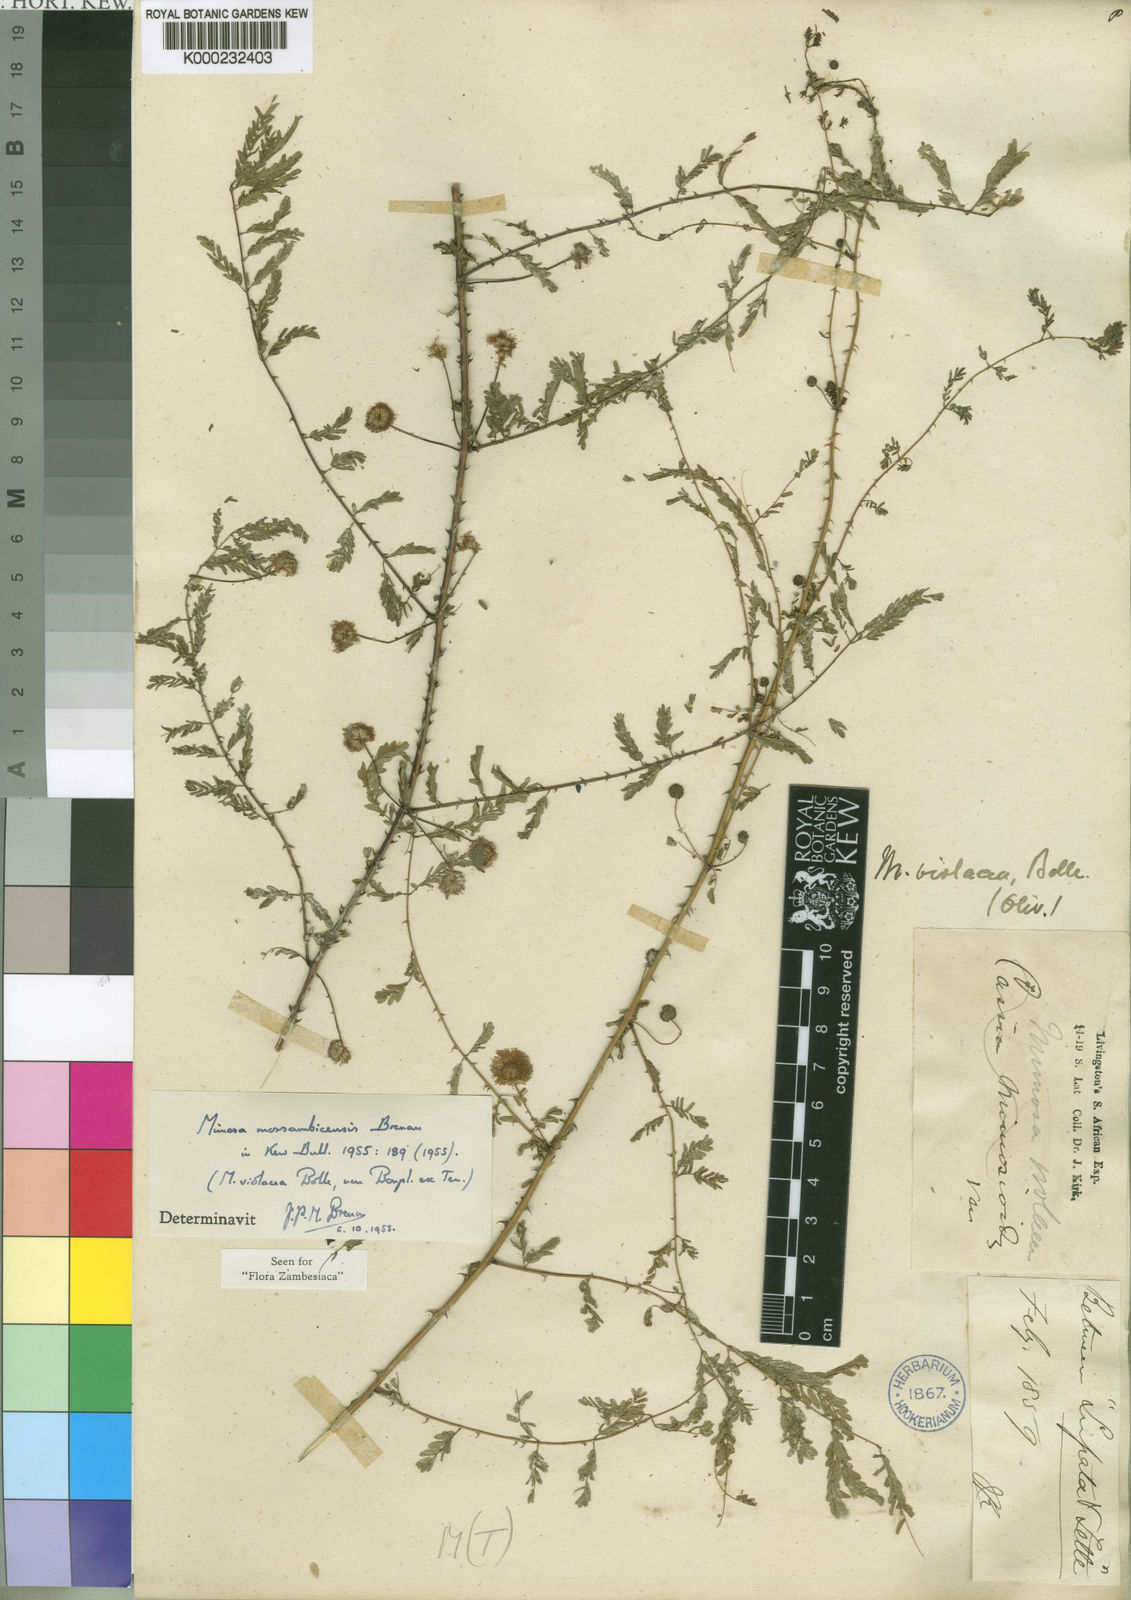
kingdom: Plantae
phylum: Tracheophyta
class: Magnoliopsida
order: Fabales
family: Fabaceae
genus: Mimosa
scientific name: Mimosa
